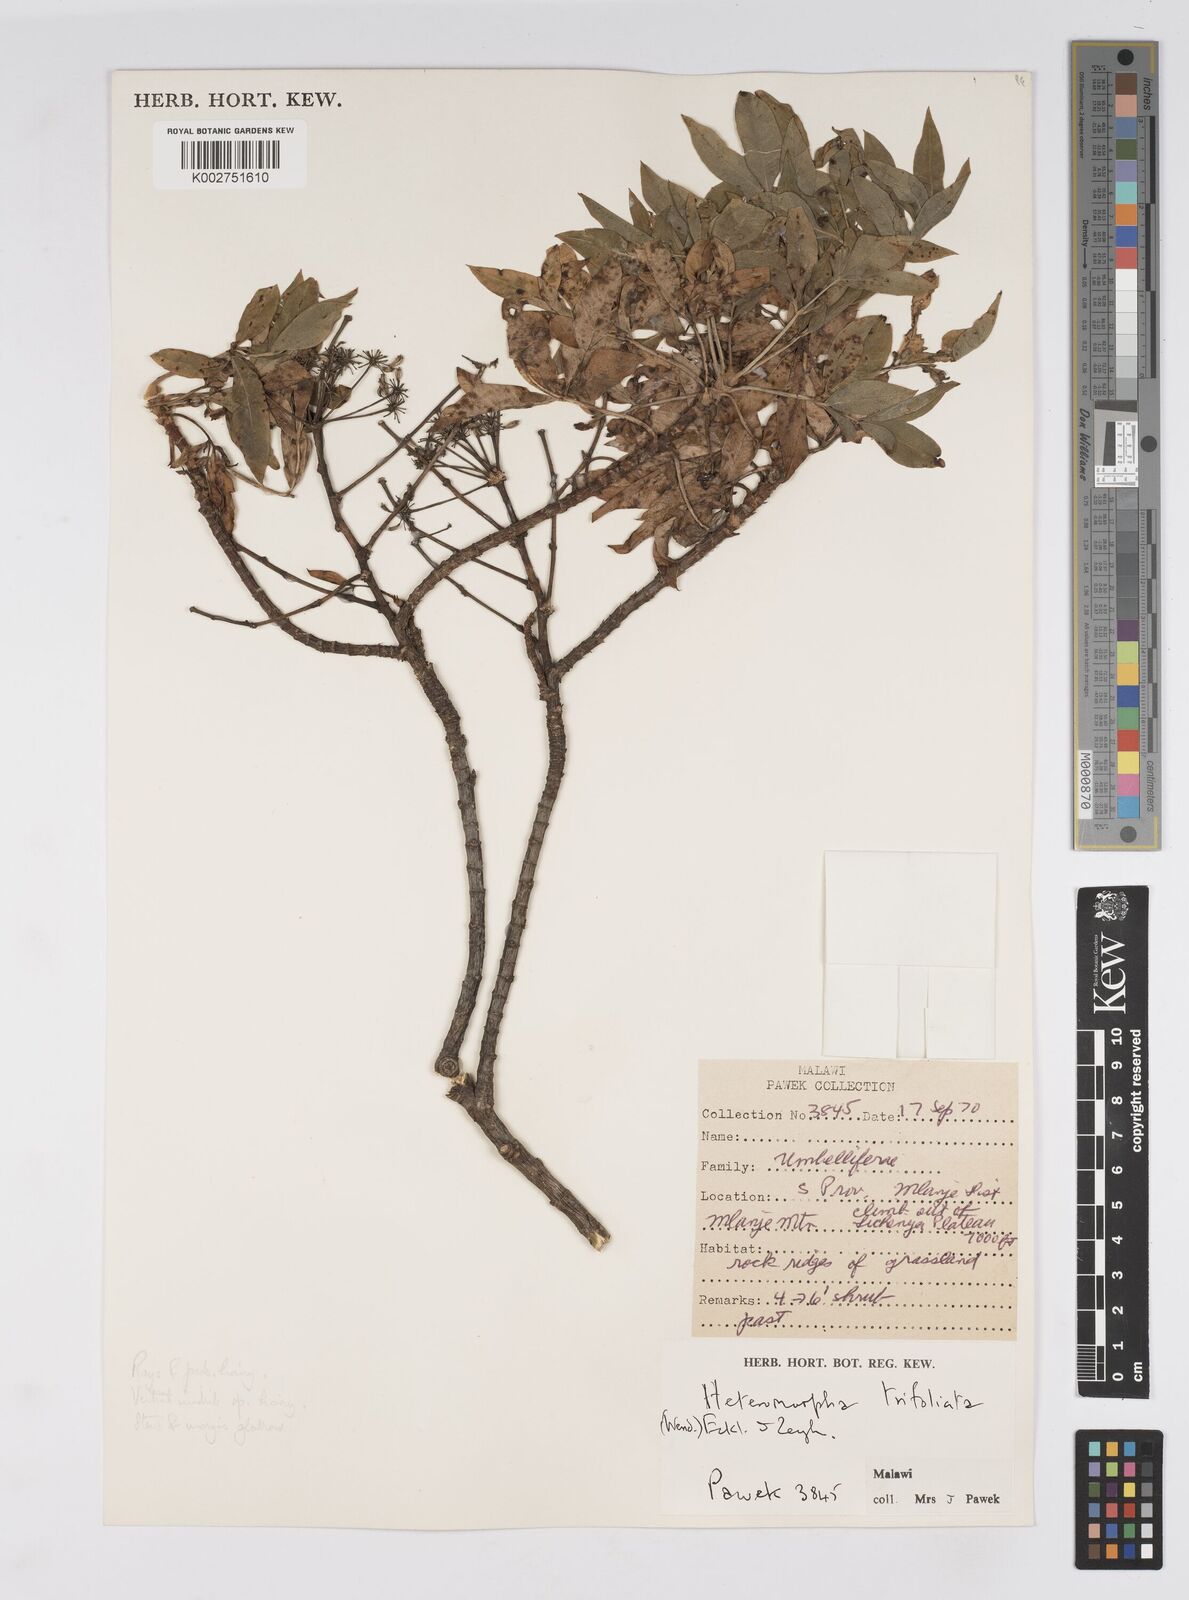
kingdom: Plantae
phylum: Tracheophyta
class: Magnoliopsida
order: Apiales
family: Apiaceae
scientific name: Apiaceae
